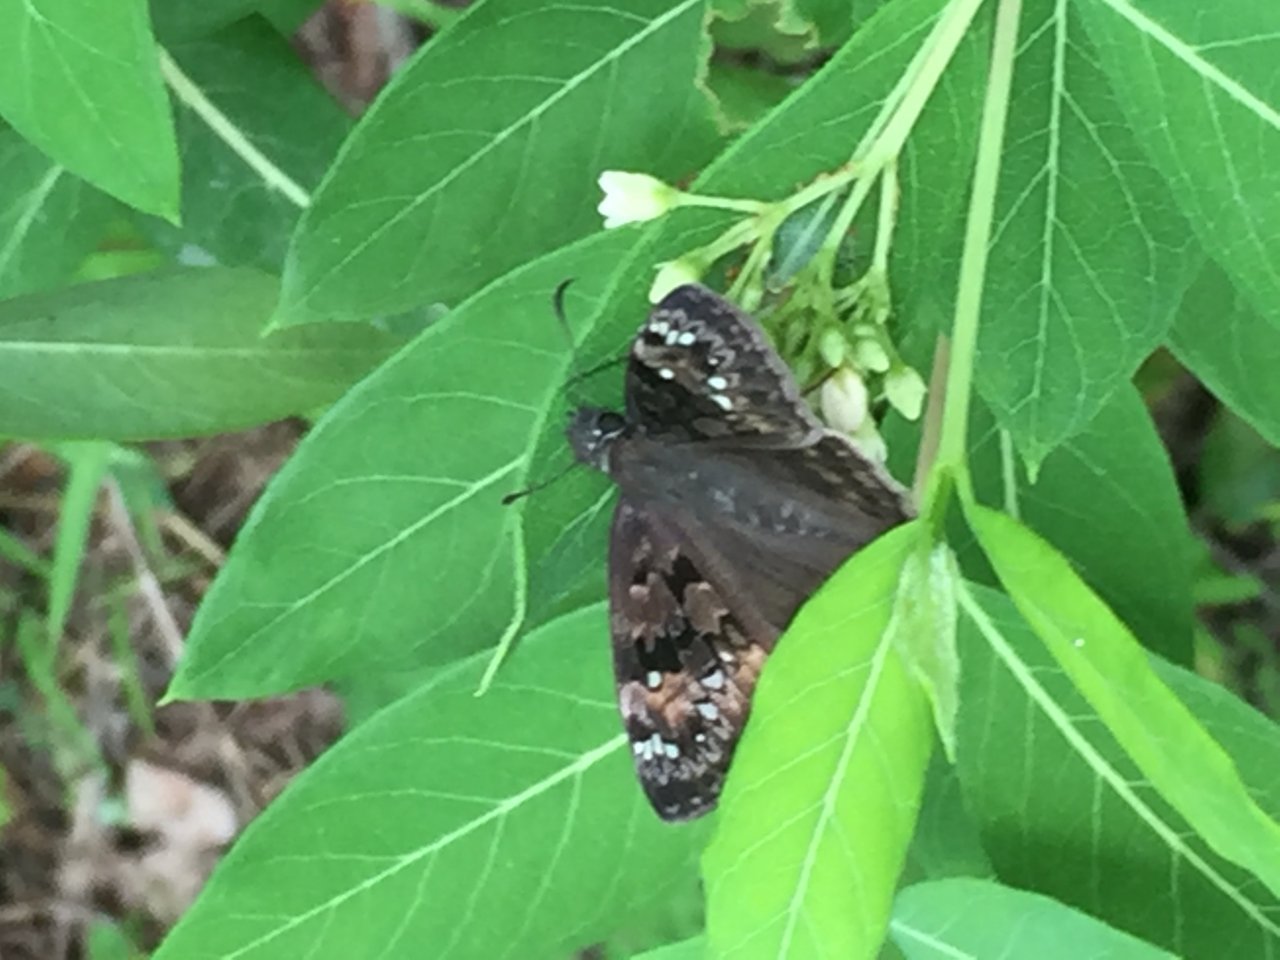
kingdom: Animalia
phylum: Arthropoda
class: Insecta
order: Lepidoptera
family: Hesperiidae
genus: Gesta
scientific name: Gesta
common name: Horace's Duskywing
